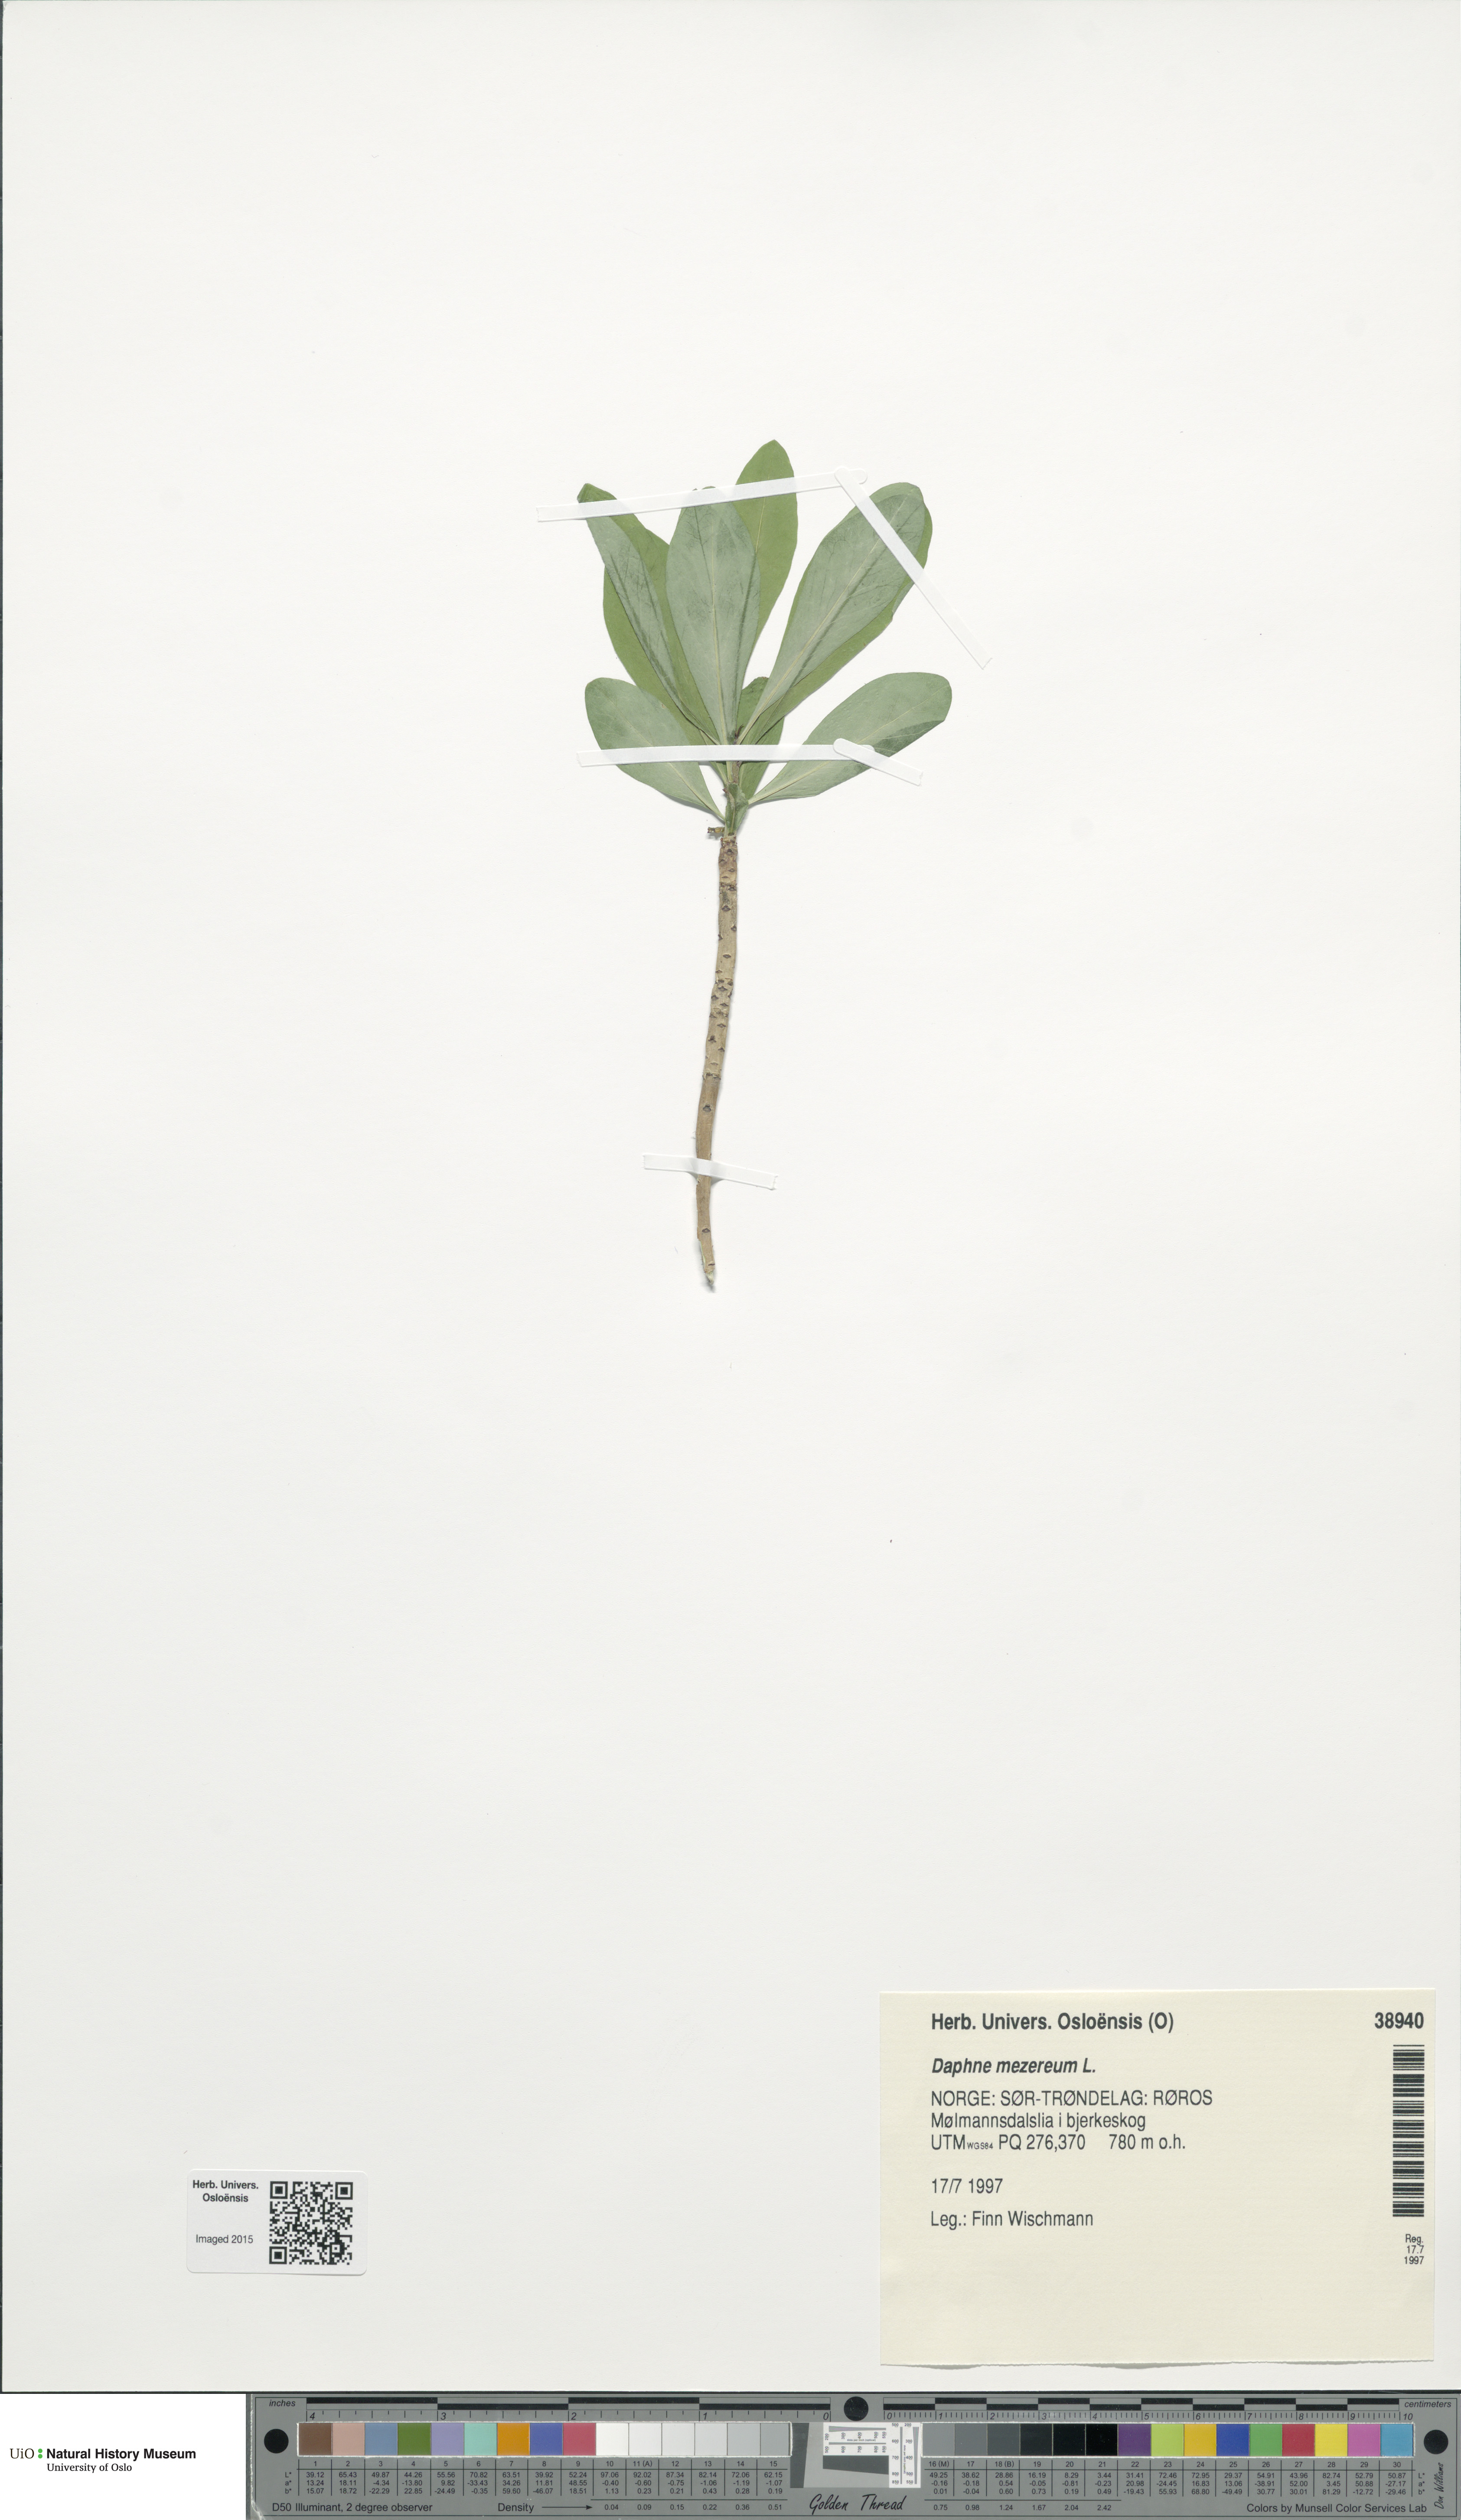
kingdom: Plantae
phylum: Tracheophyta
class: Magnoliopsida
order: Malvales
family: Thymelaeaceae
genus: Daphne
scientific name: Daphne mezereum
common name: Mezereon
